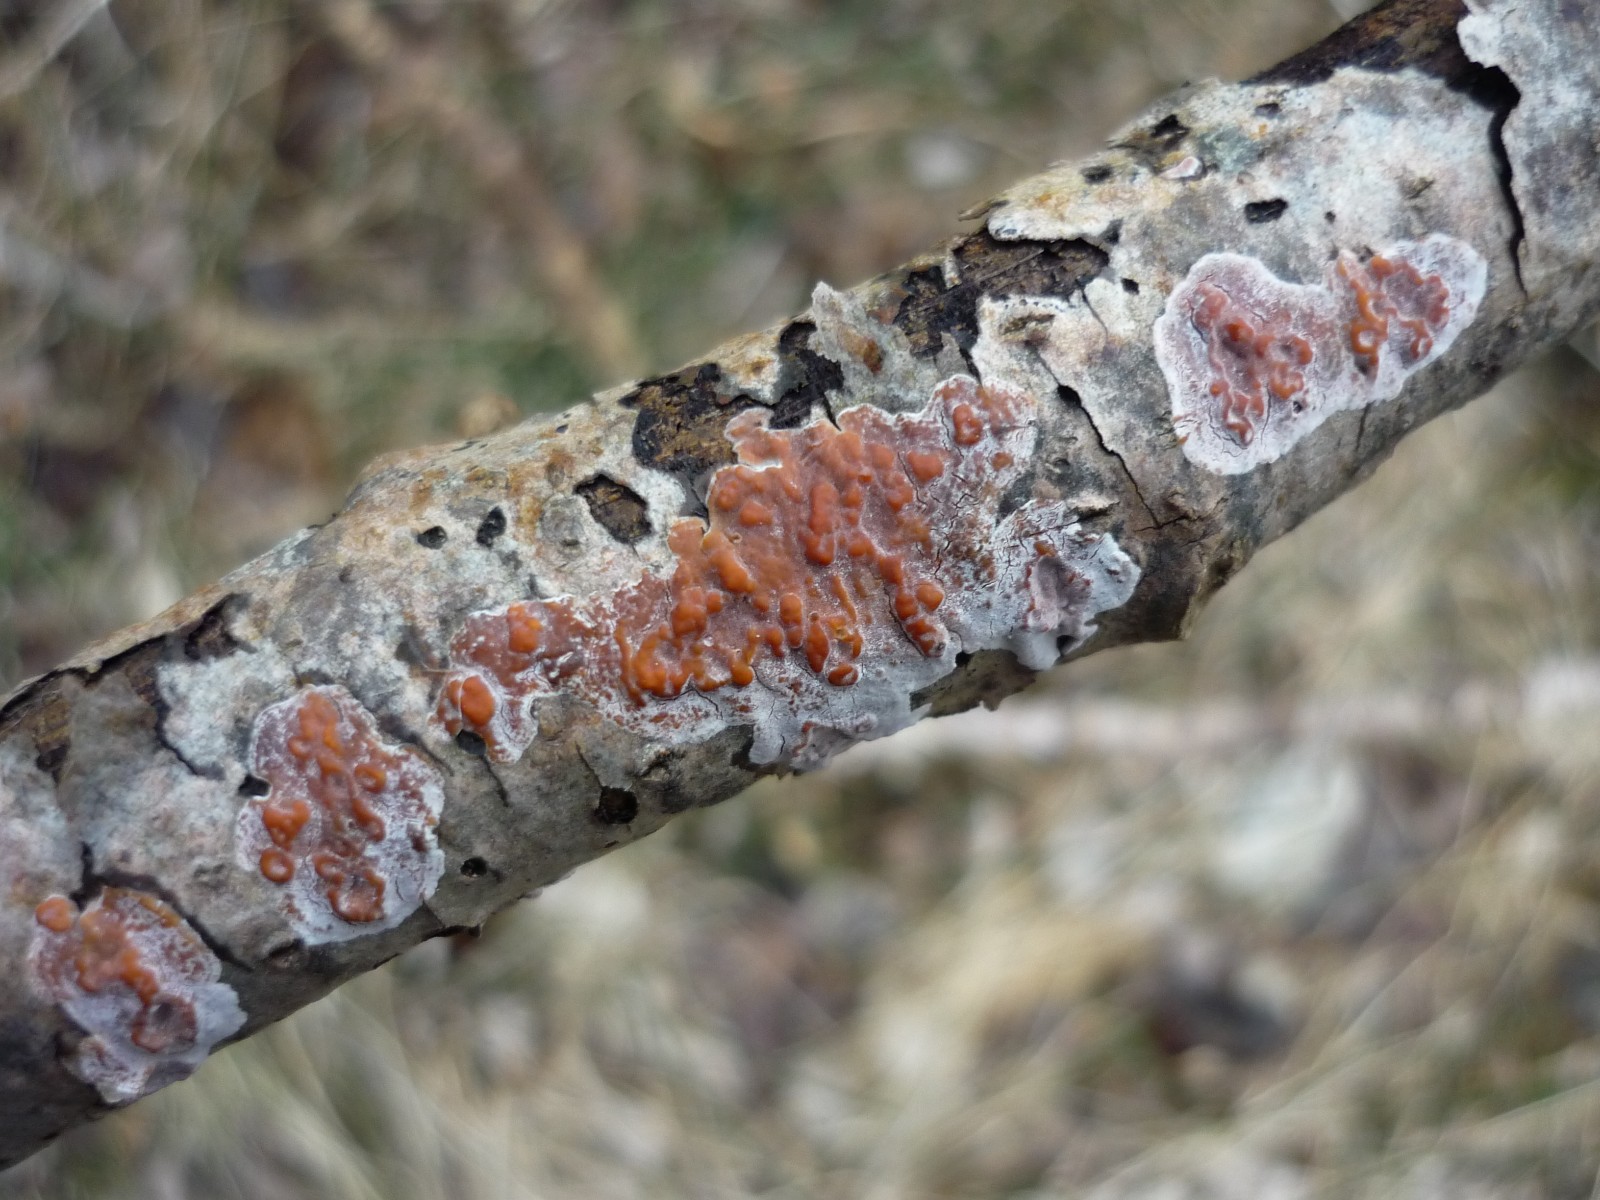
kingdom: Fungi
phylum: Basidiomycota
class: Agaricomycetes
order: Russulales
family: Peniophoraceae
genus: Peniophora
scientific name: Peniophora polygonia
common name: polygon-voksskind
